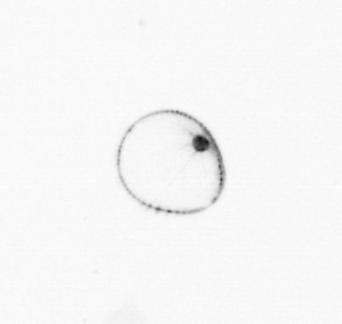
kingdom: Chromista
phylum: Myzozoa
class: Dinophyceae
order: Noctilucales
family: Noctilucaceae
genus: Noctiluca
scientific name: Noctiluca scintillans
